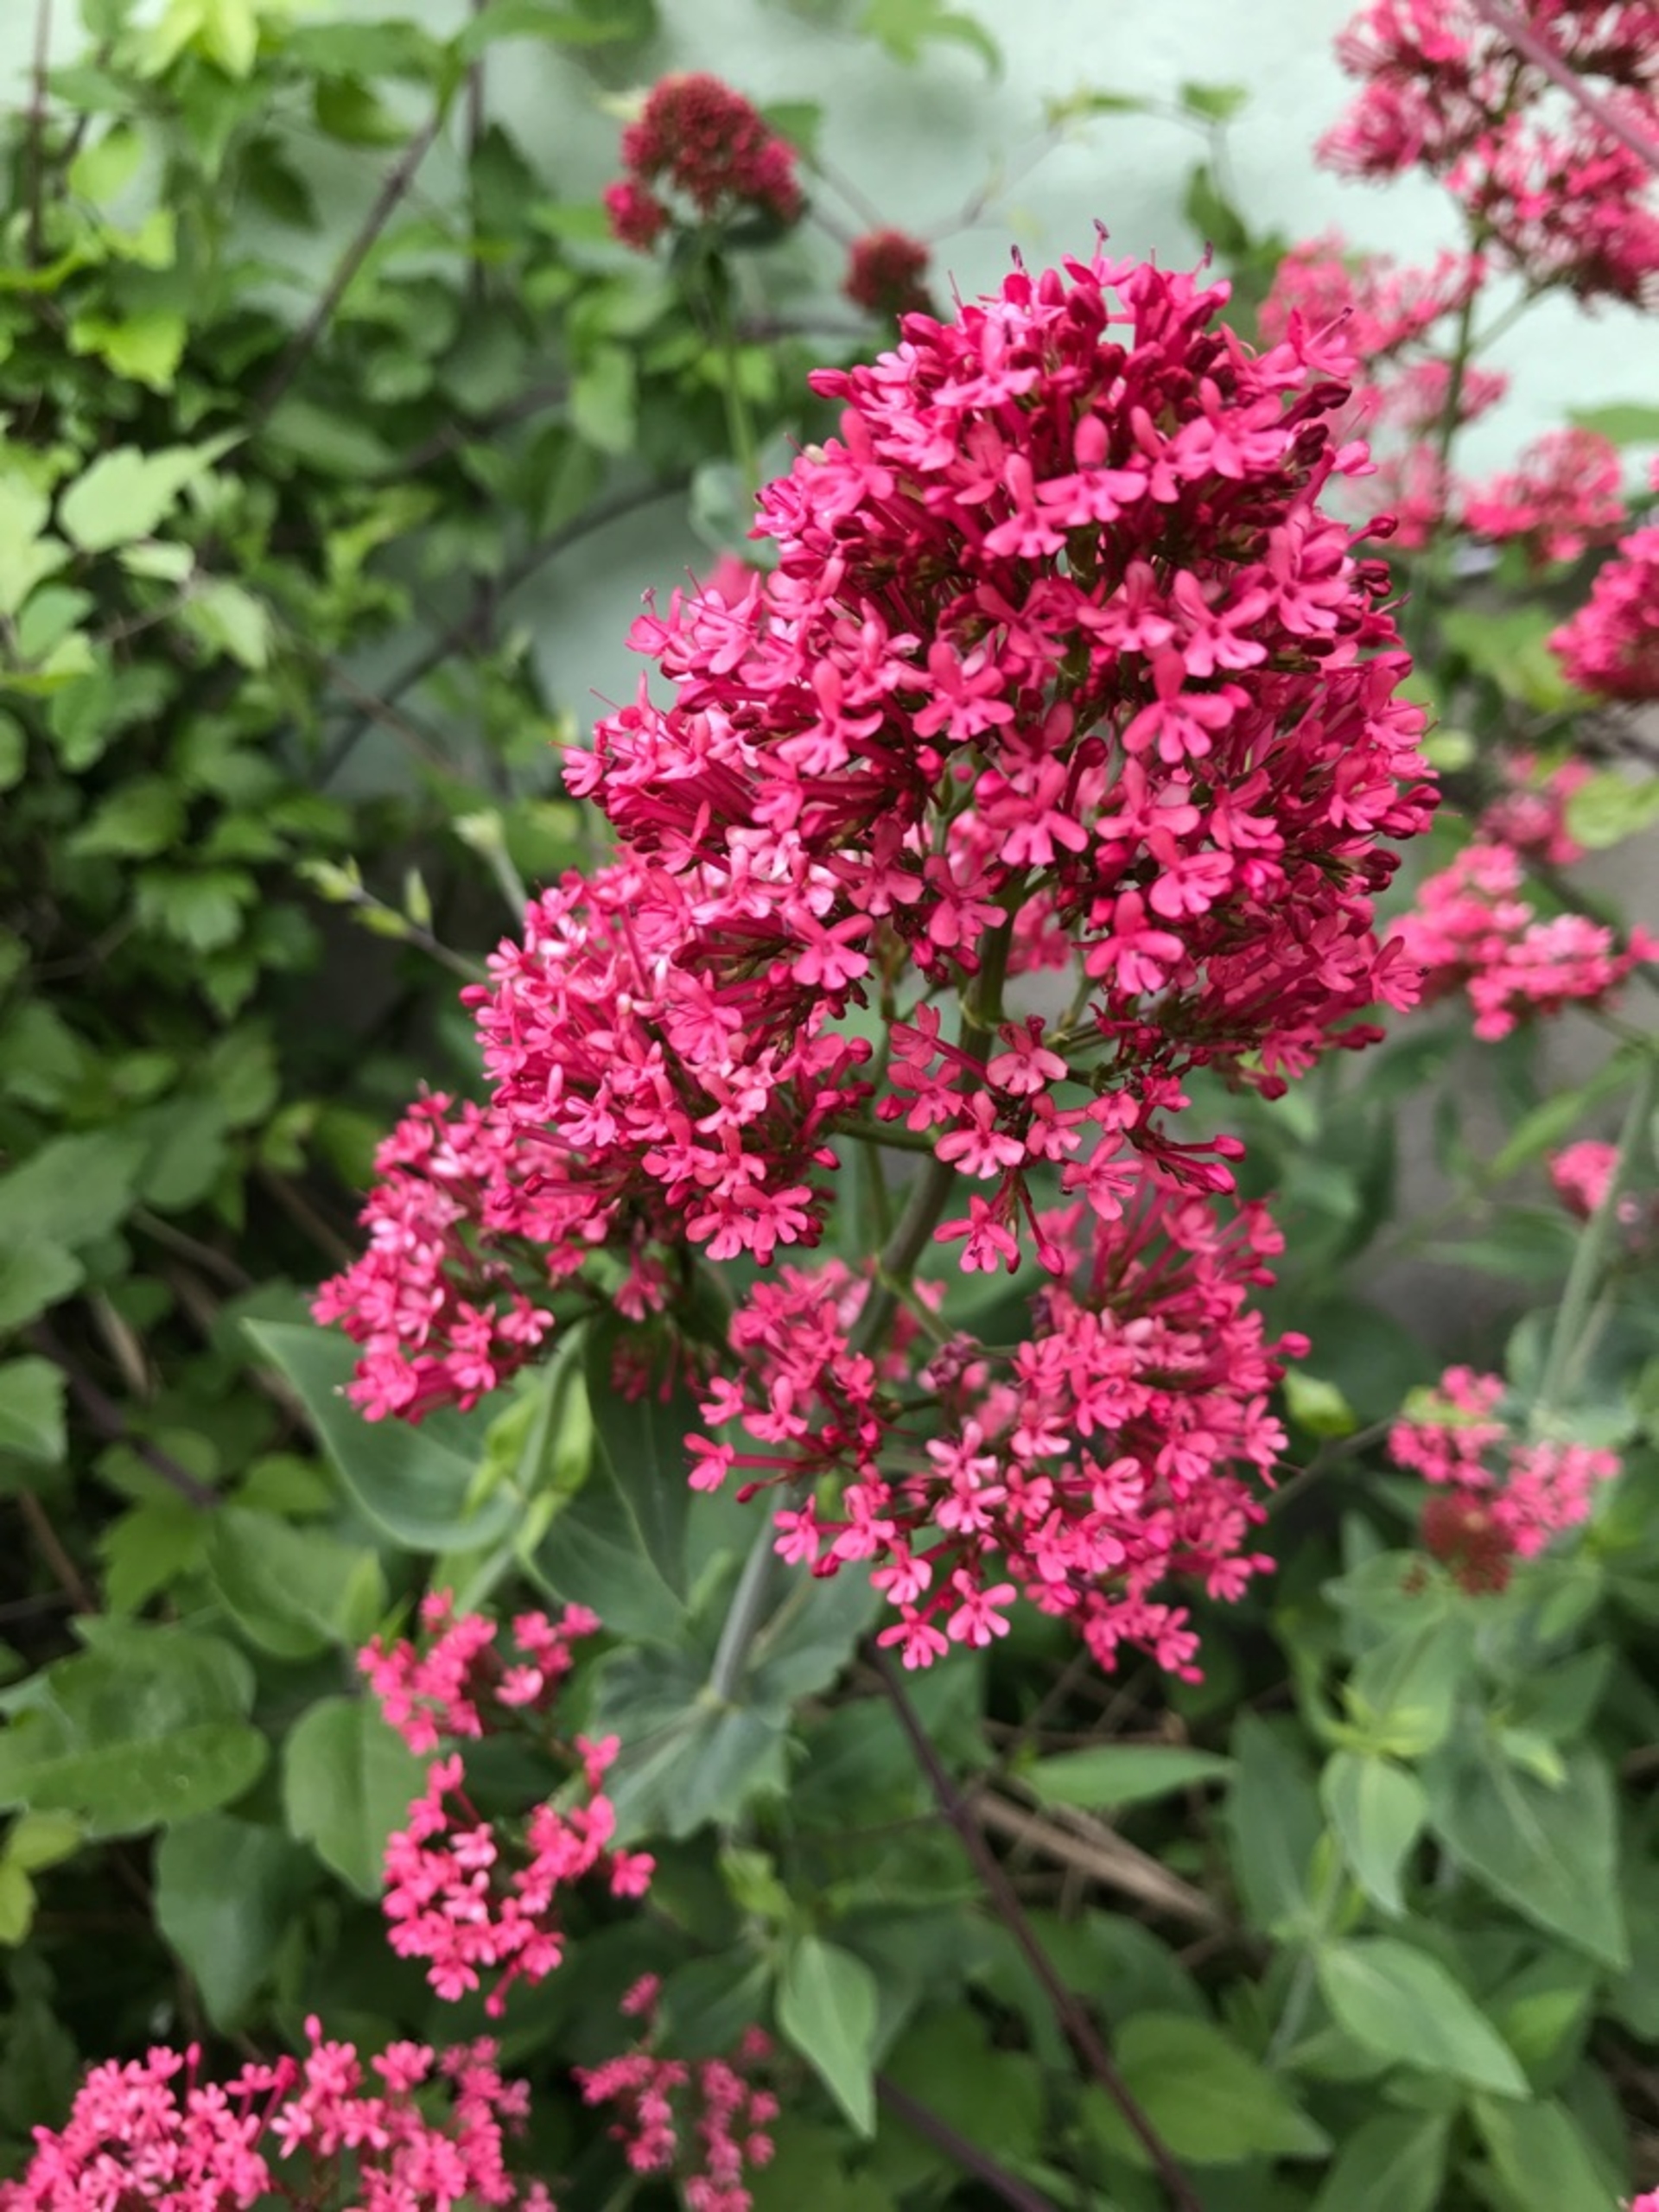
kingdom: Plantae
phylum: Tracheophyta
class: Magnoliopsida
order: Dipsacales
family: Caprifoliaceae
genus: Centranthus
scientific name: Centranthus ruber
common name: Sporebaldrian
